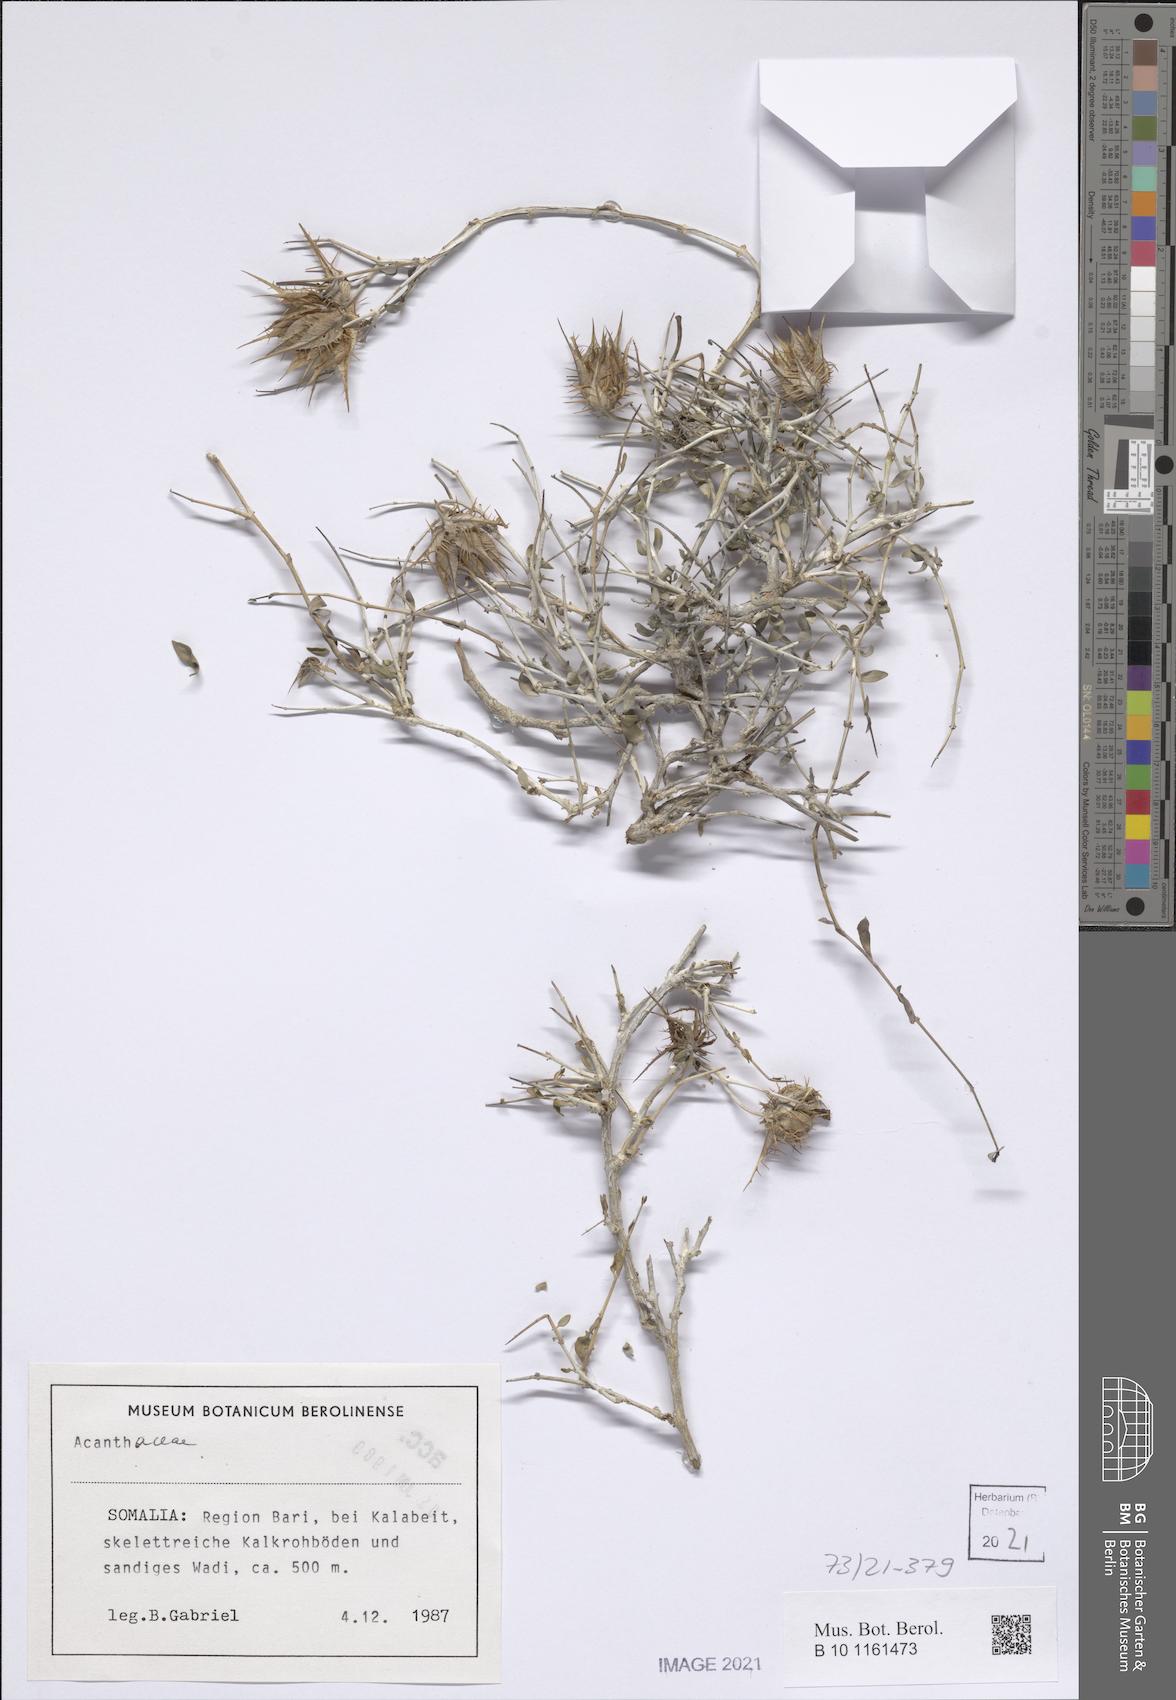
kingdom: Plantae
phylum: Tracheophyta
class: Magnoliopsida
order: Lamiales
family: Acanthaceae
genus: Crabbea
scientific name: Crabbea thymifolia
